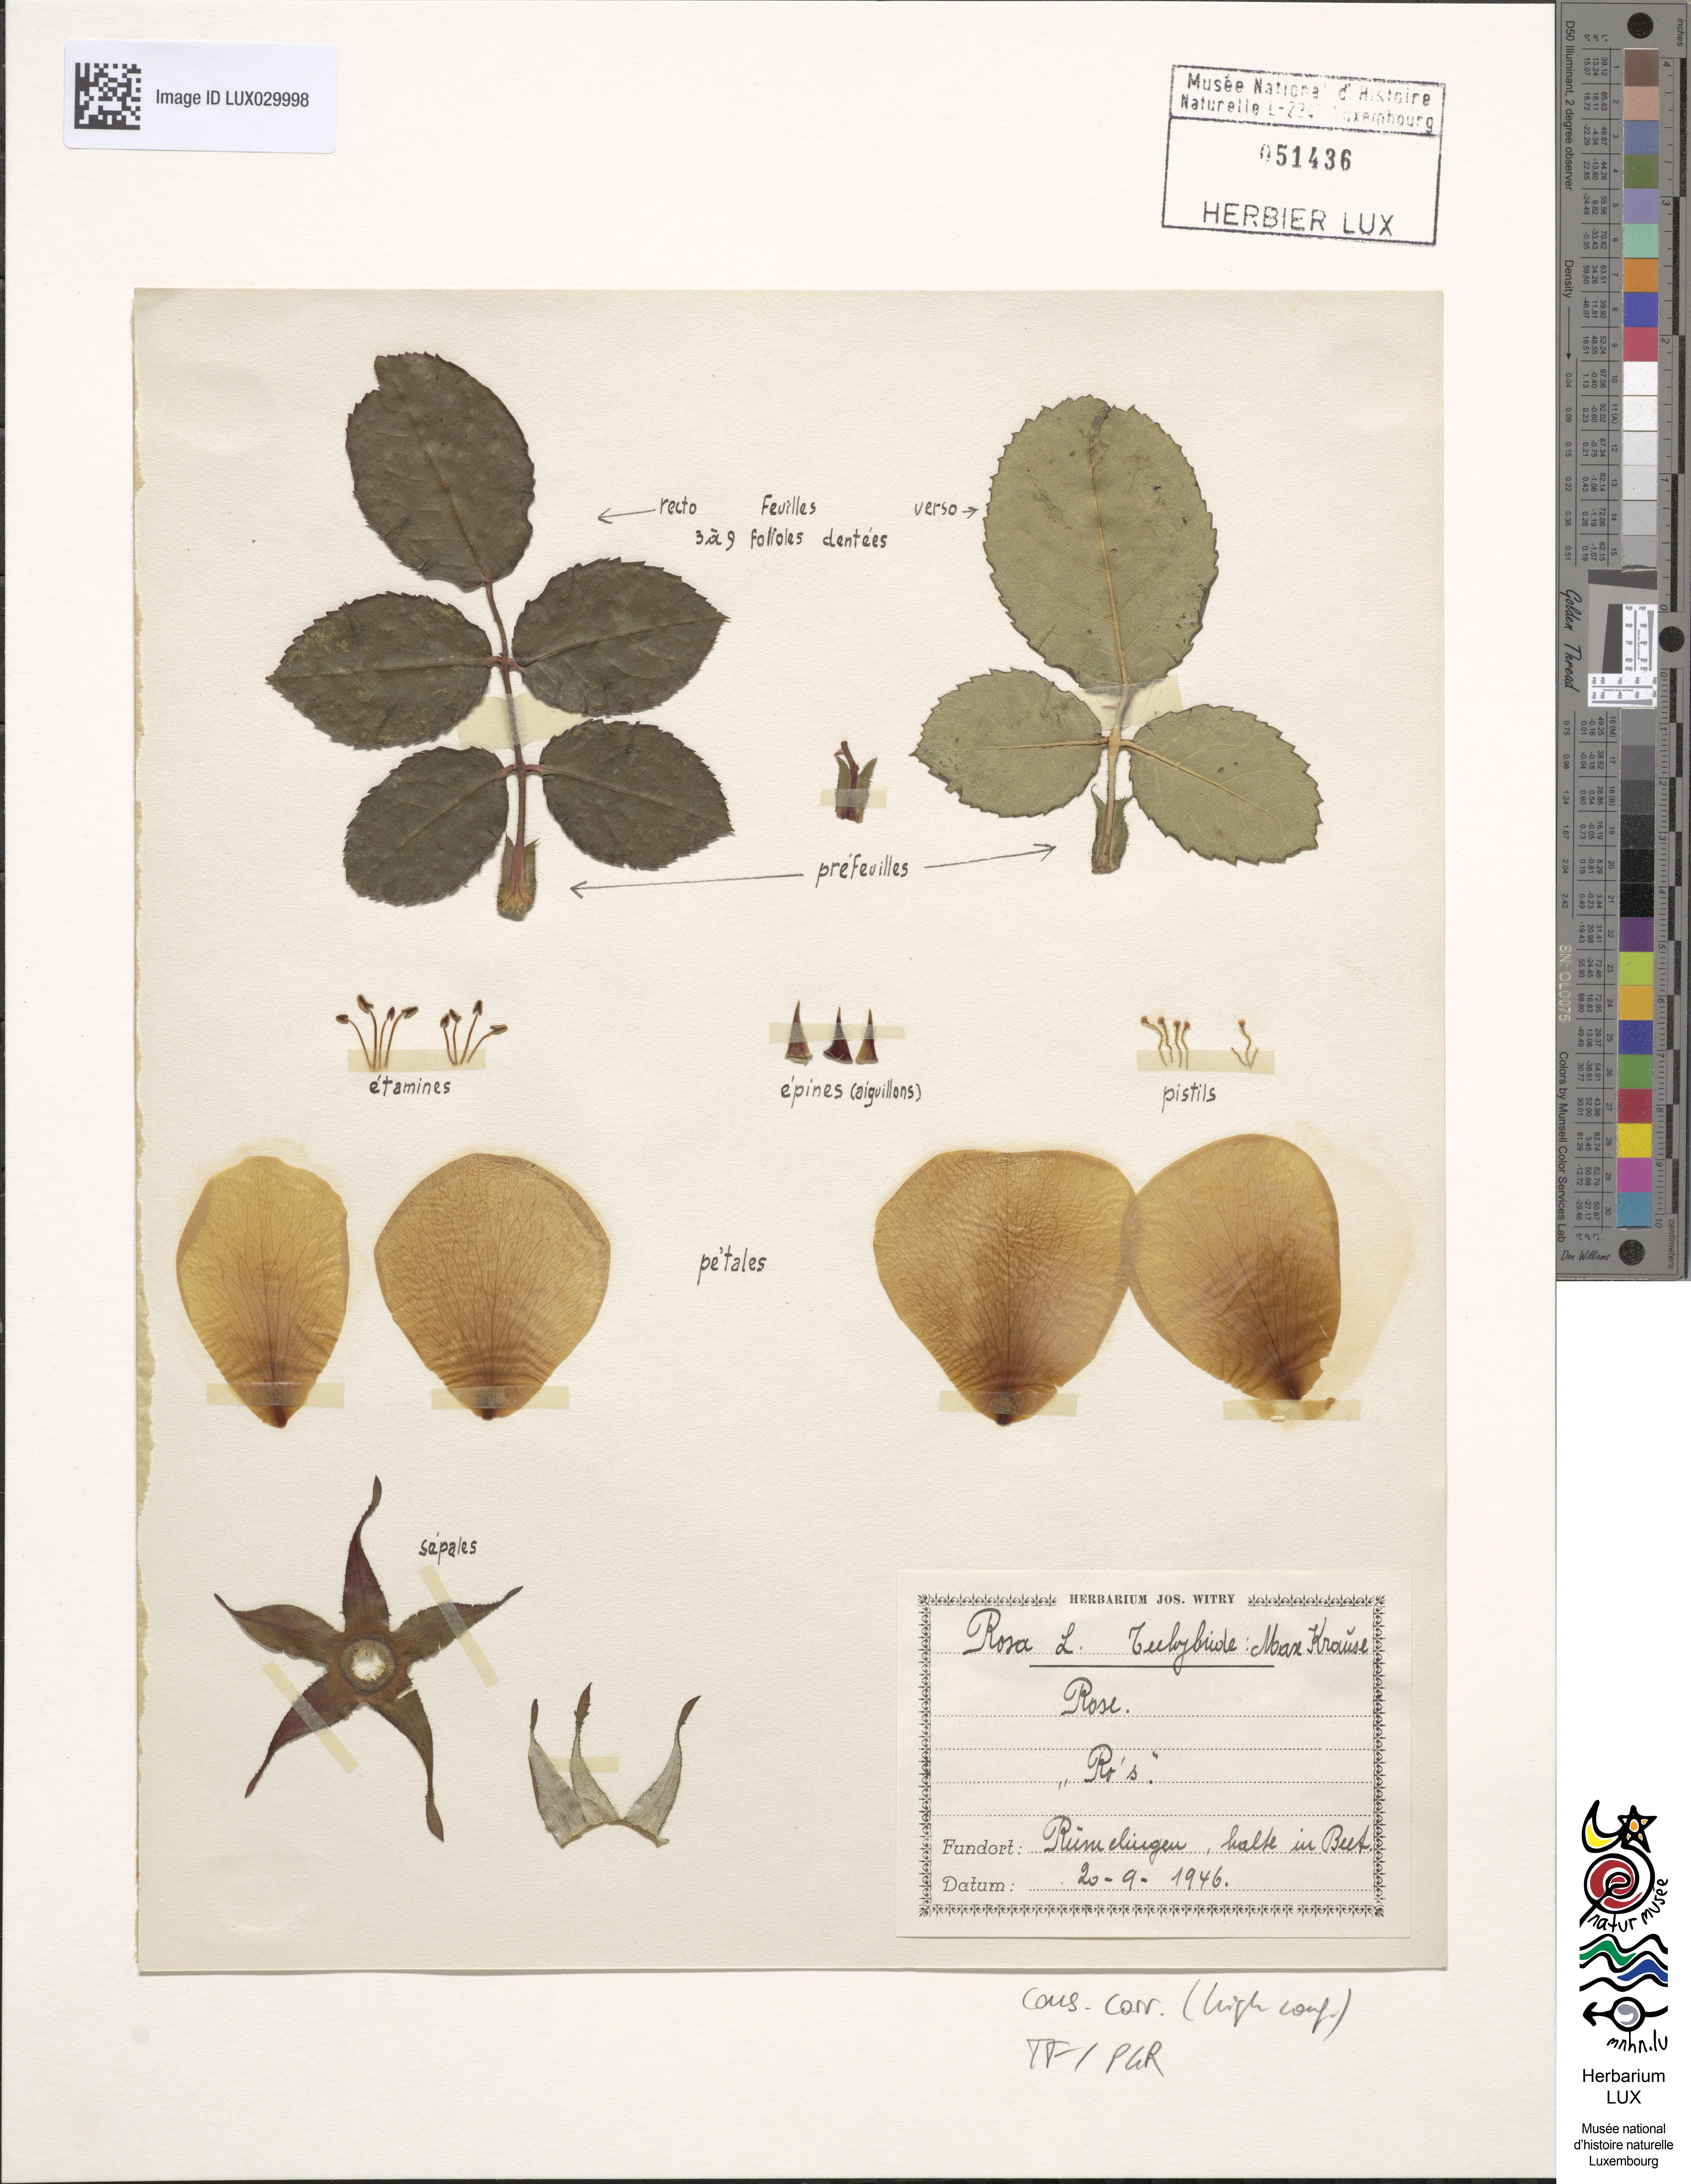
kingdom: Plantae
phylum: Tracheophyta
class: Magnoliopsida
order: Rosales
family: Rosaceae
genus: Rosa
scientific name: Rosa
